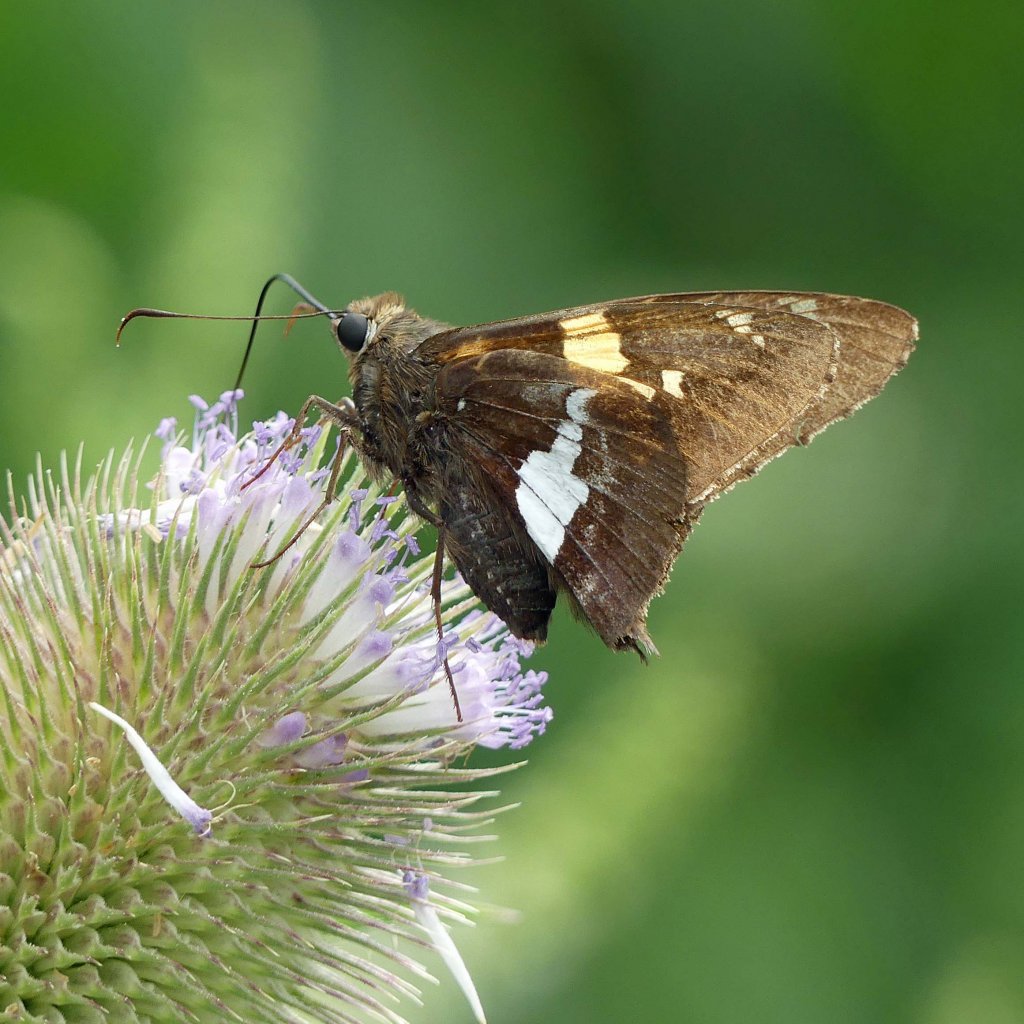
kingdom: Animalia
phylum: Arthropoda
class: Insecta
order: Lepidoptera
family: Hesperiidae
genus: Epargyreus
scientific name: Epargyreus clarus
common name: Silver-spotted Skipper
